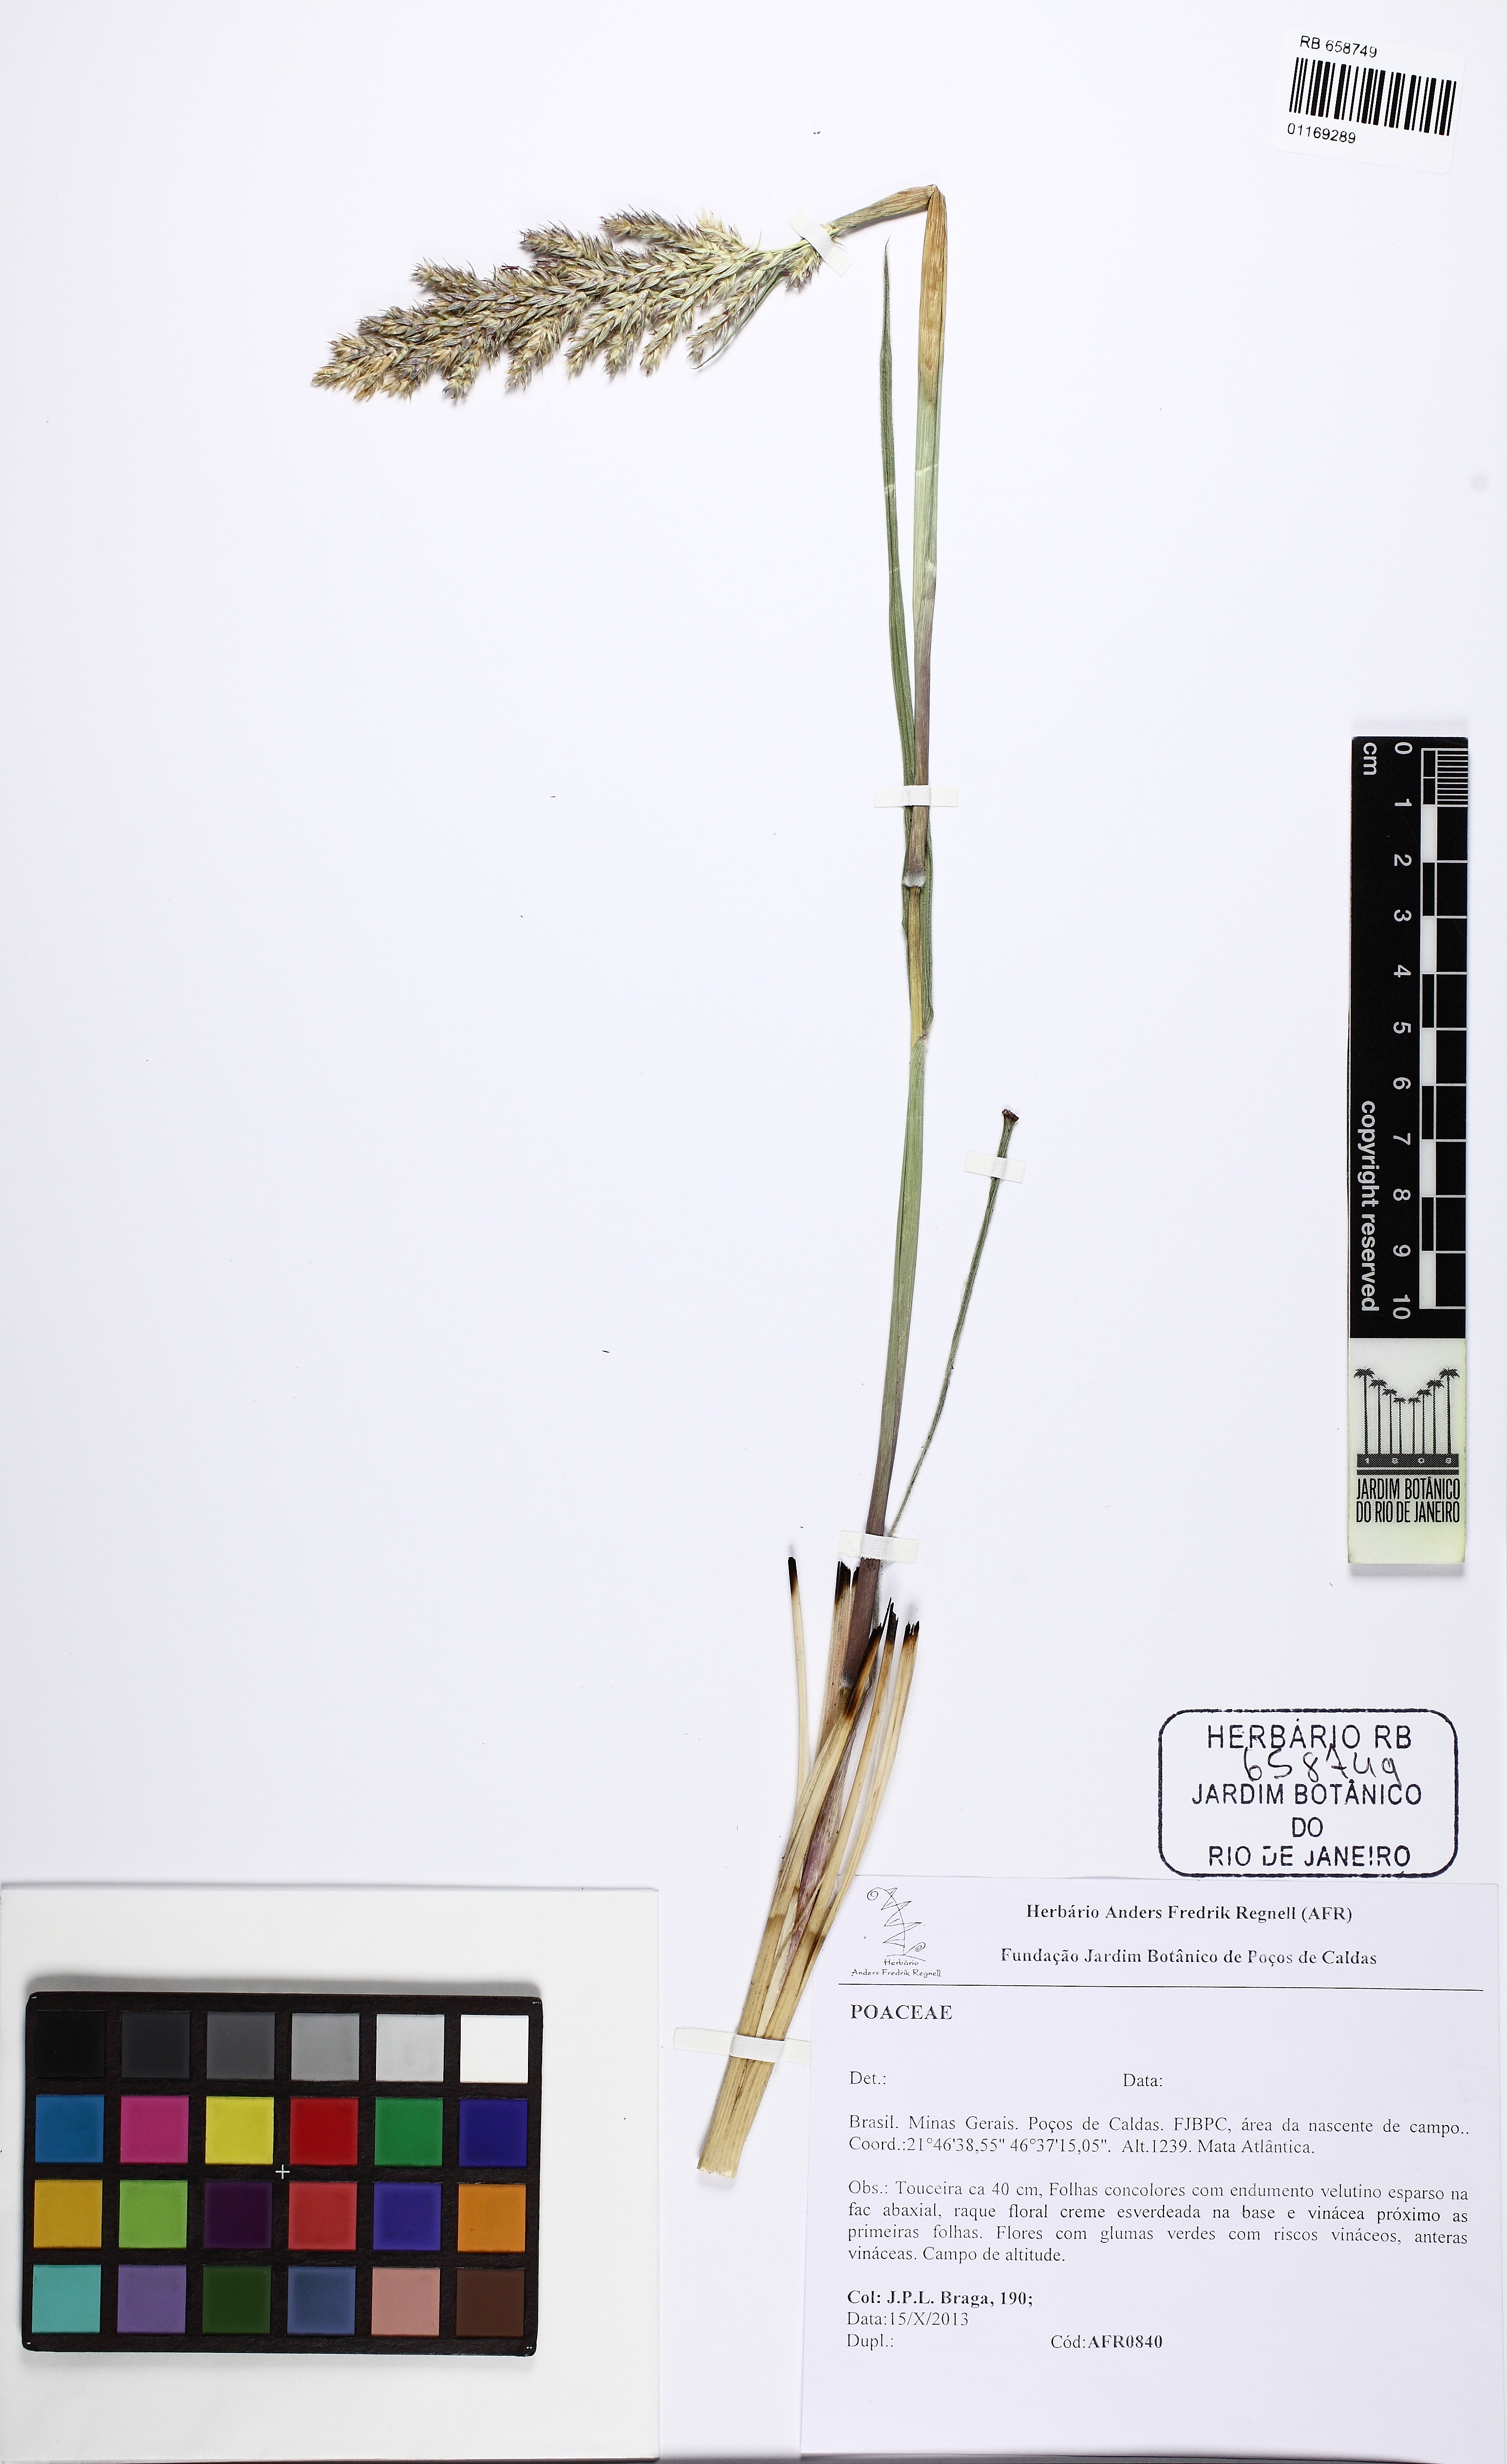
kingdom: Plantae
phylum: Tracheophyta
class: Liliopsida
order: Poales
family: Poaceae
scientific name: Poaceae
